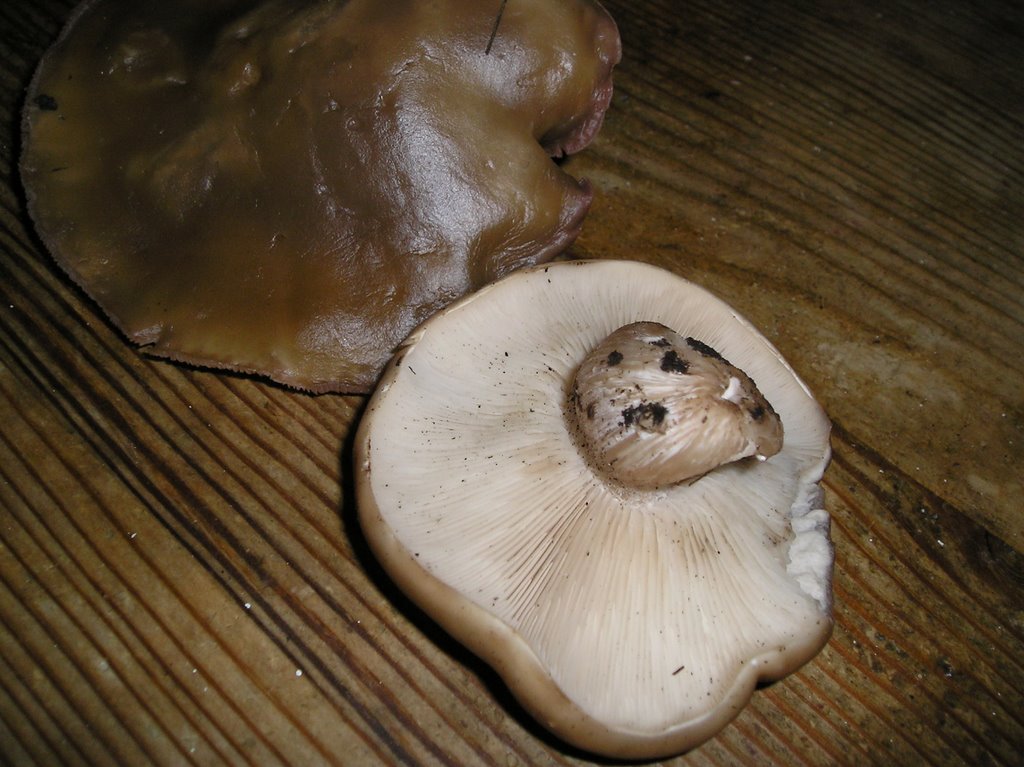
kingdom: Fungi
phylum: Basidiomycota
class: Agaricomycetes
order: Agaricales
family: Tricholomataceae
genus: Lepista
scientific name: Lepista nuda
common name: violet hekseringshat
